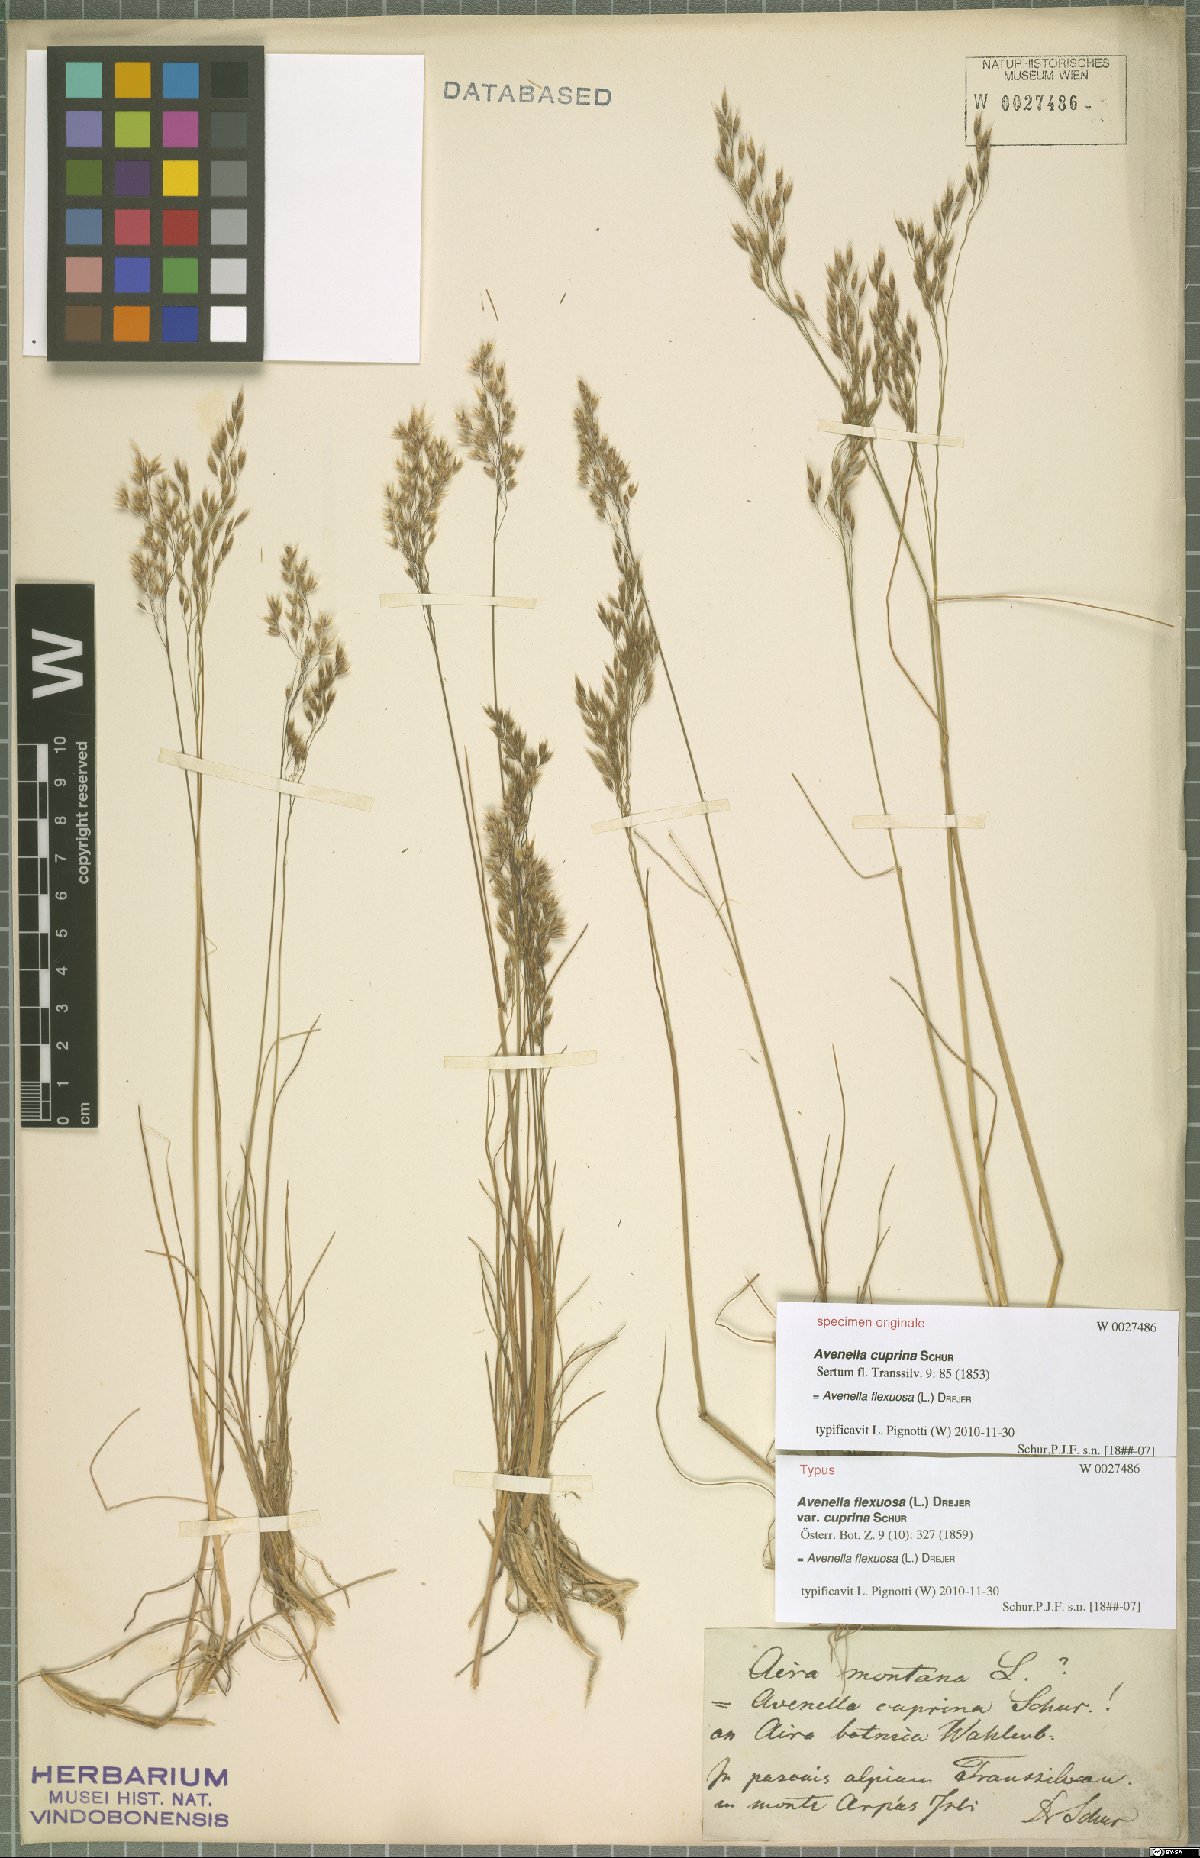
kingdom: Plantae
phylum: Tracheophyta
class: Liliopsida
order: Poales
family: Poaceae
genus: Avenella
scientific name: Avenella flexuosa
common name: Wavy hairgrass
